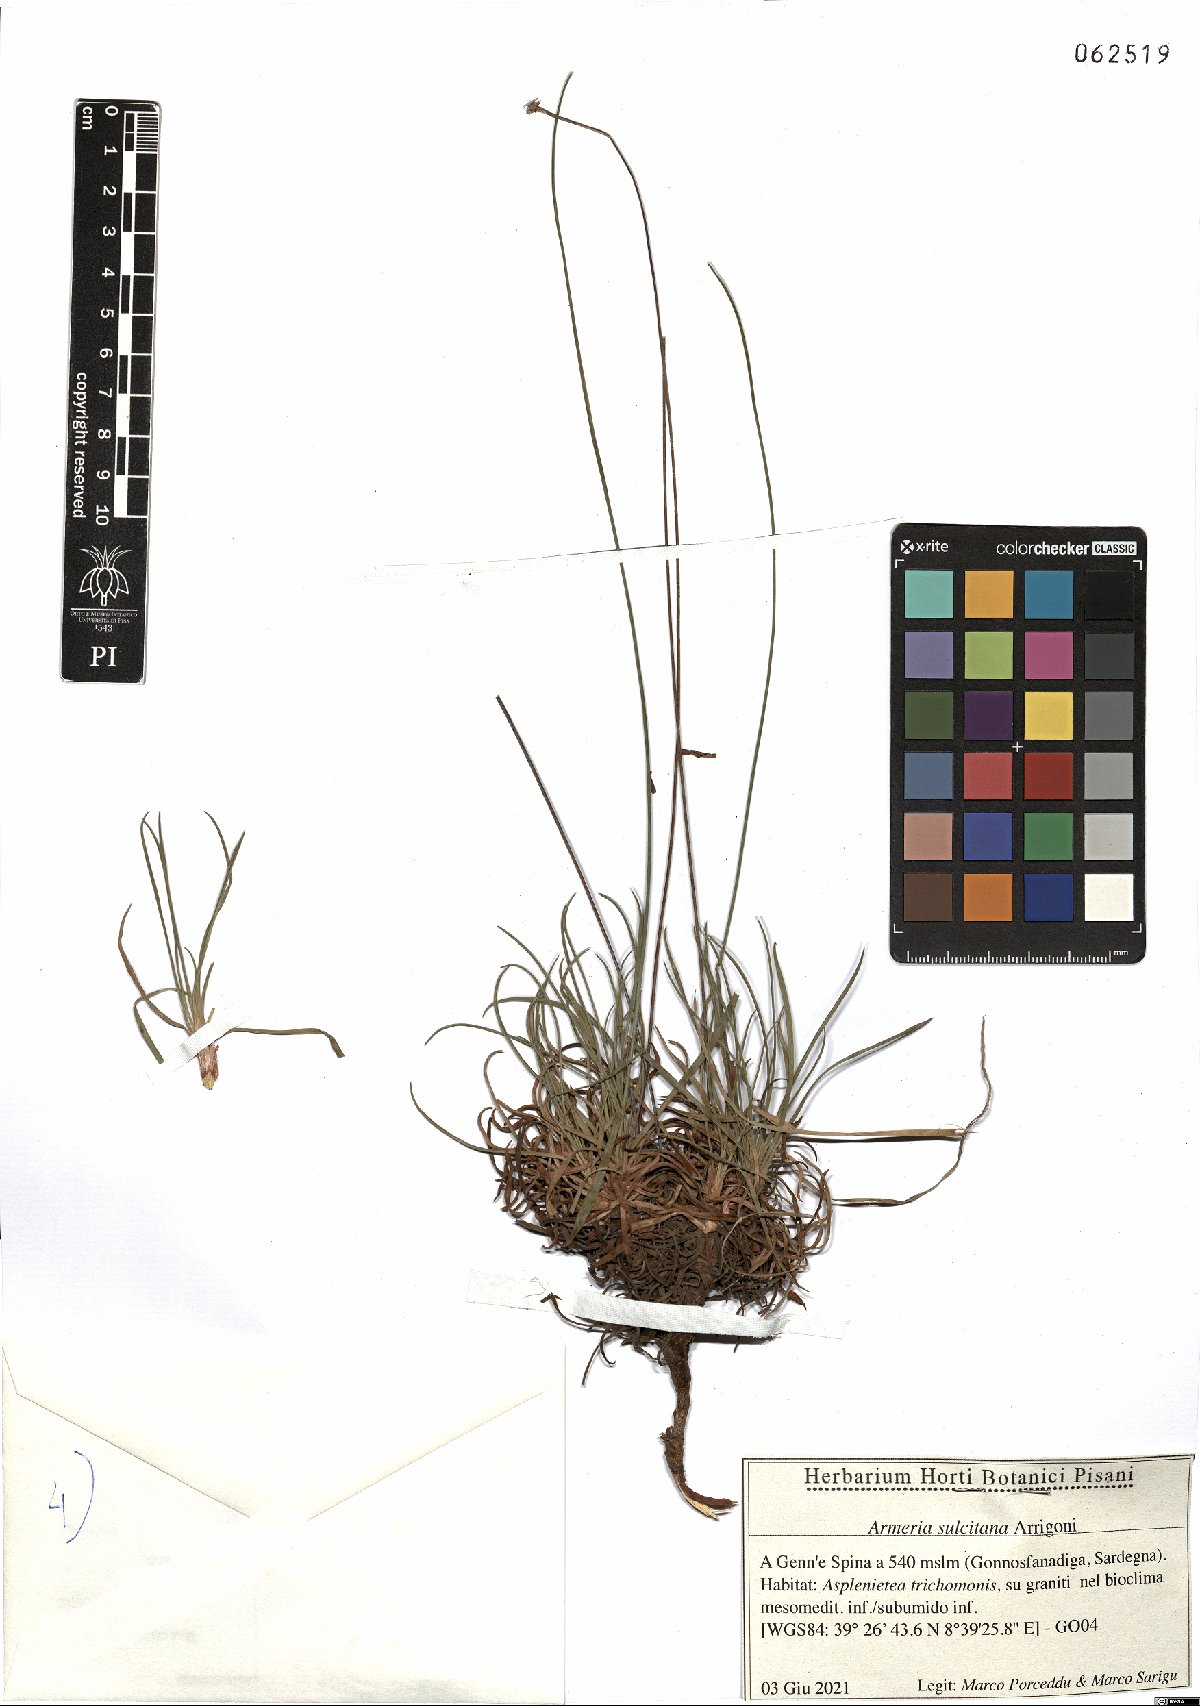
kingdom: Plantae
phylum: Tracheophyta
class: Magnoliopsida
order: Caryophyllales
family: Plumbaginaceae
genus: Armeria
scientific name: Armeria sulcitana
